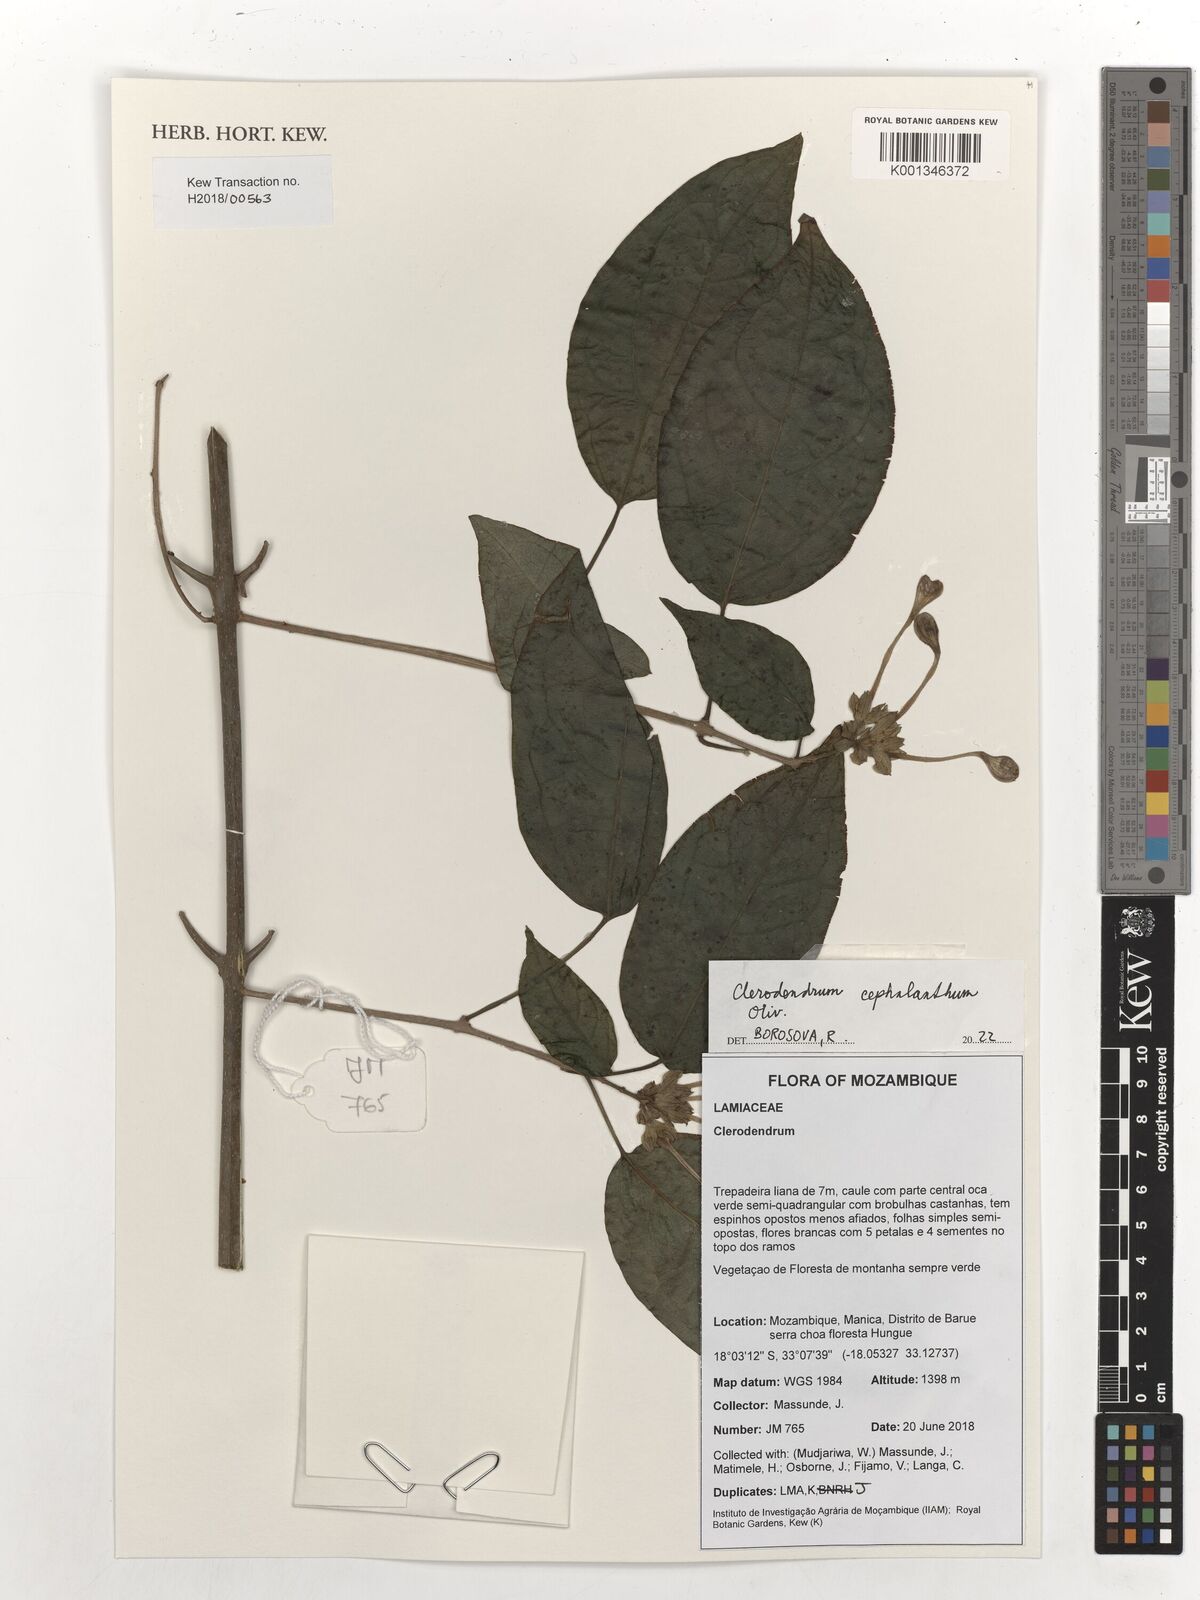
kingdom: Plantae
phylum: Tracheophyta
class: Magnoliopsida
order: Lamiales
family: Lamiaceae
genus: Clerodendrum
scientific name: Clerodendrum cephalanthum
